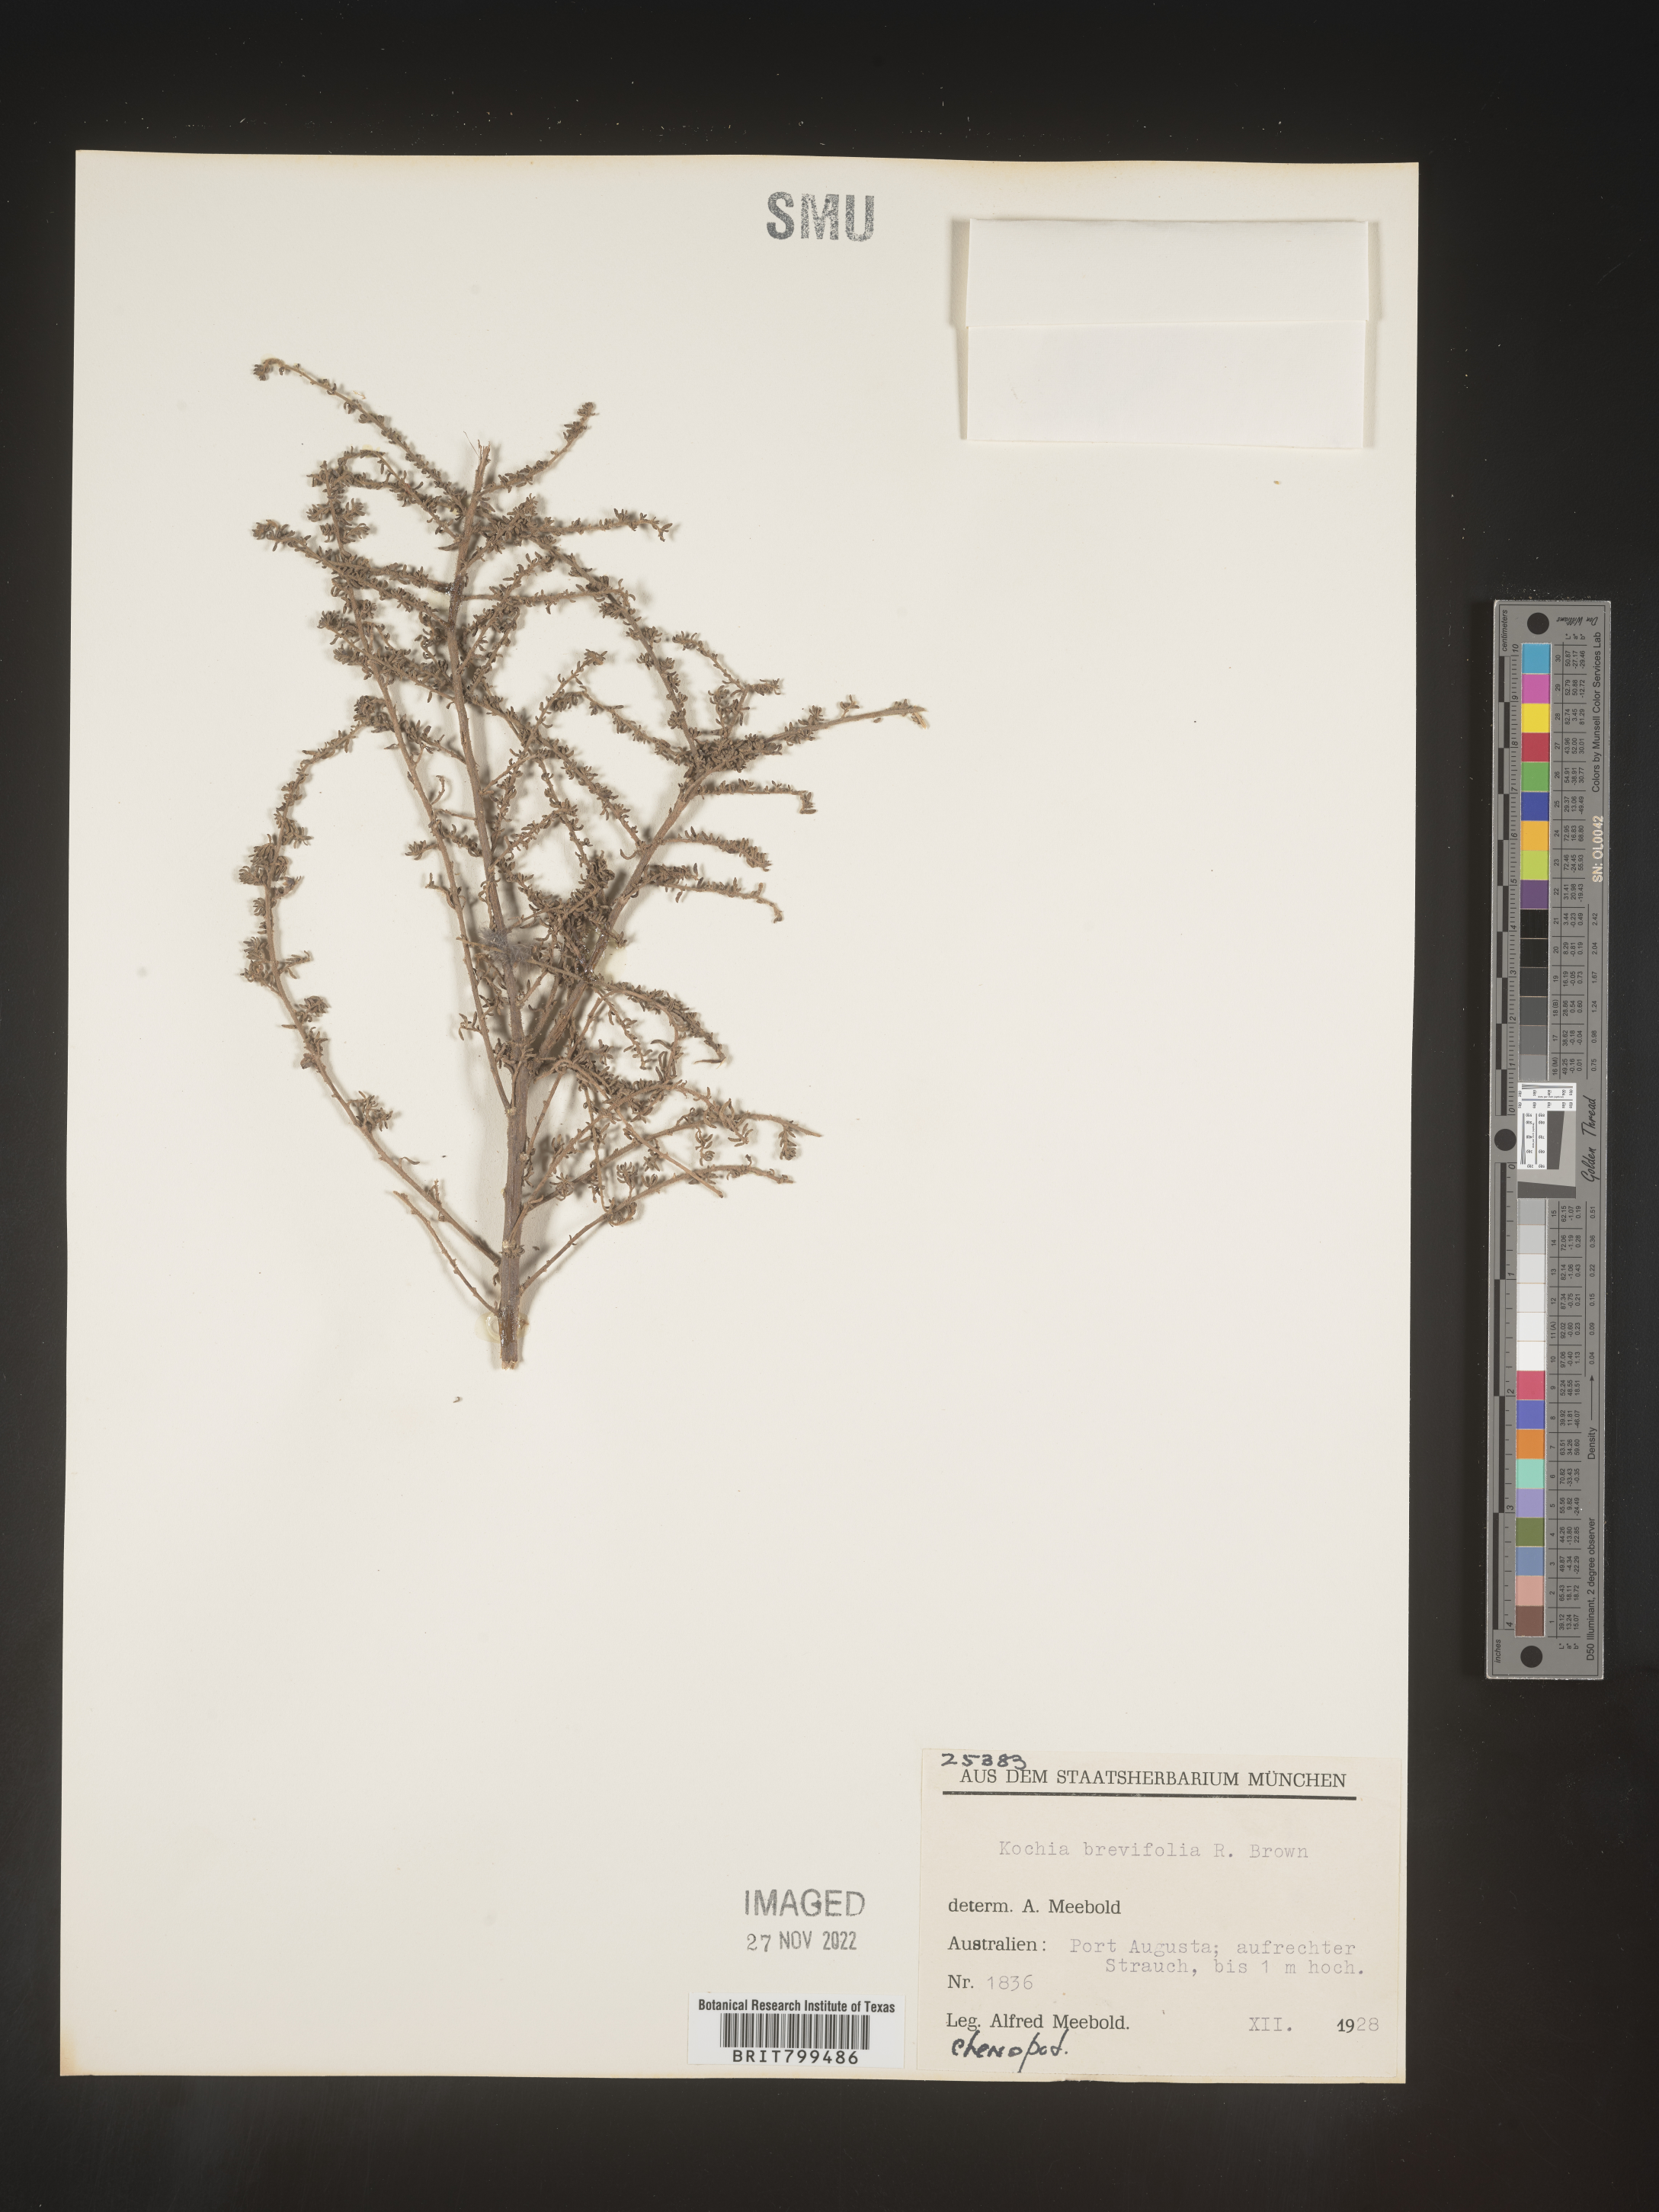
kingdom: Plantae
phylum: Tracheophyta
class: Magnoliopsida
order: Caryophyllales
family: Amaranthaceae
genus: Bassia
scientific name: Bassia
